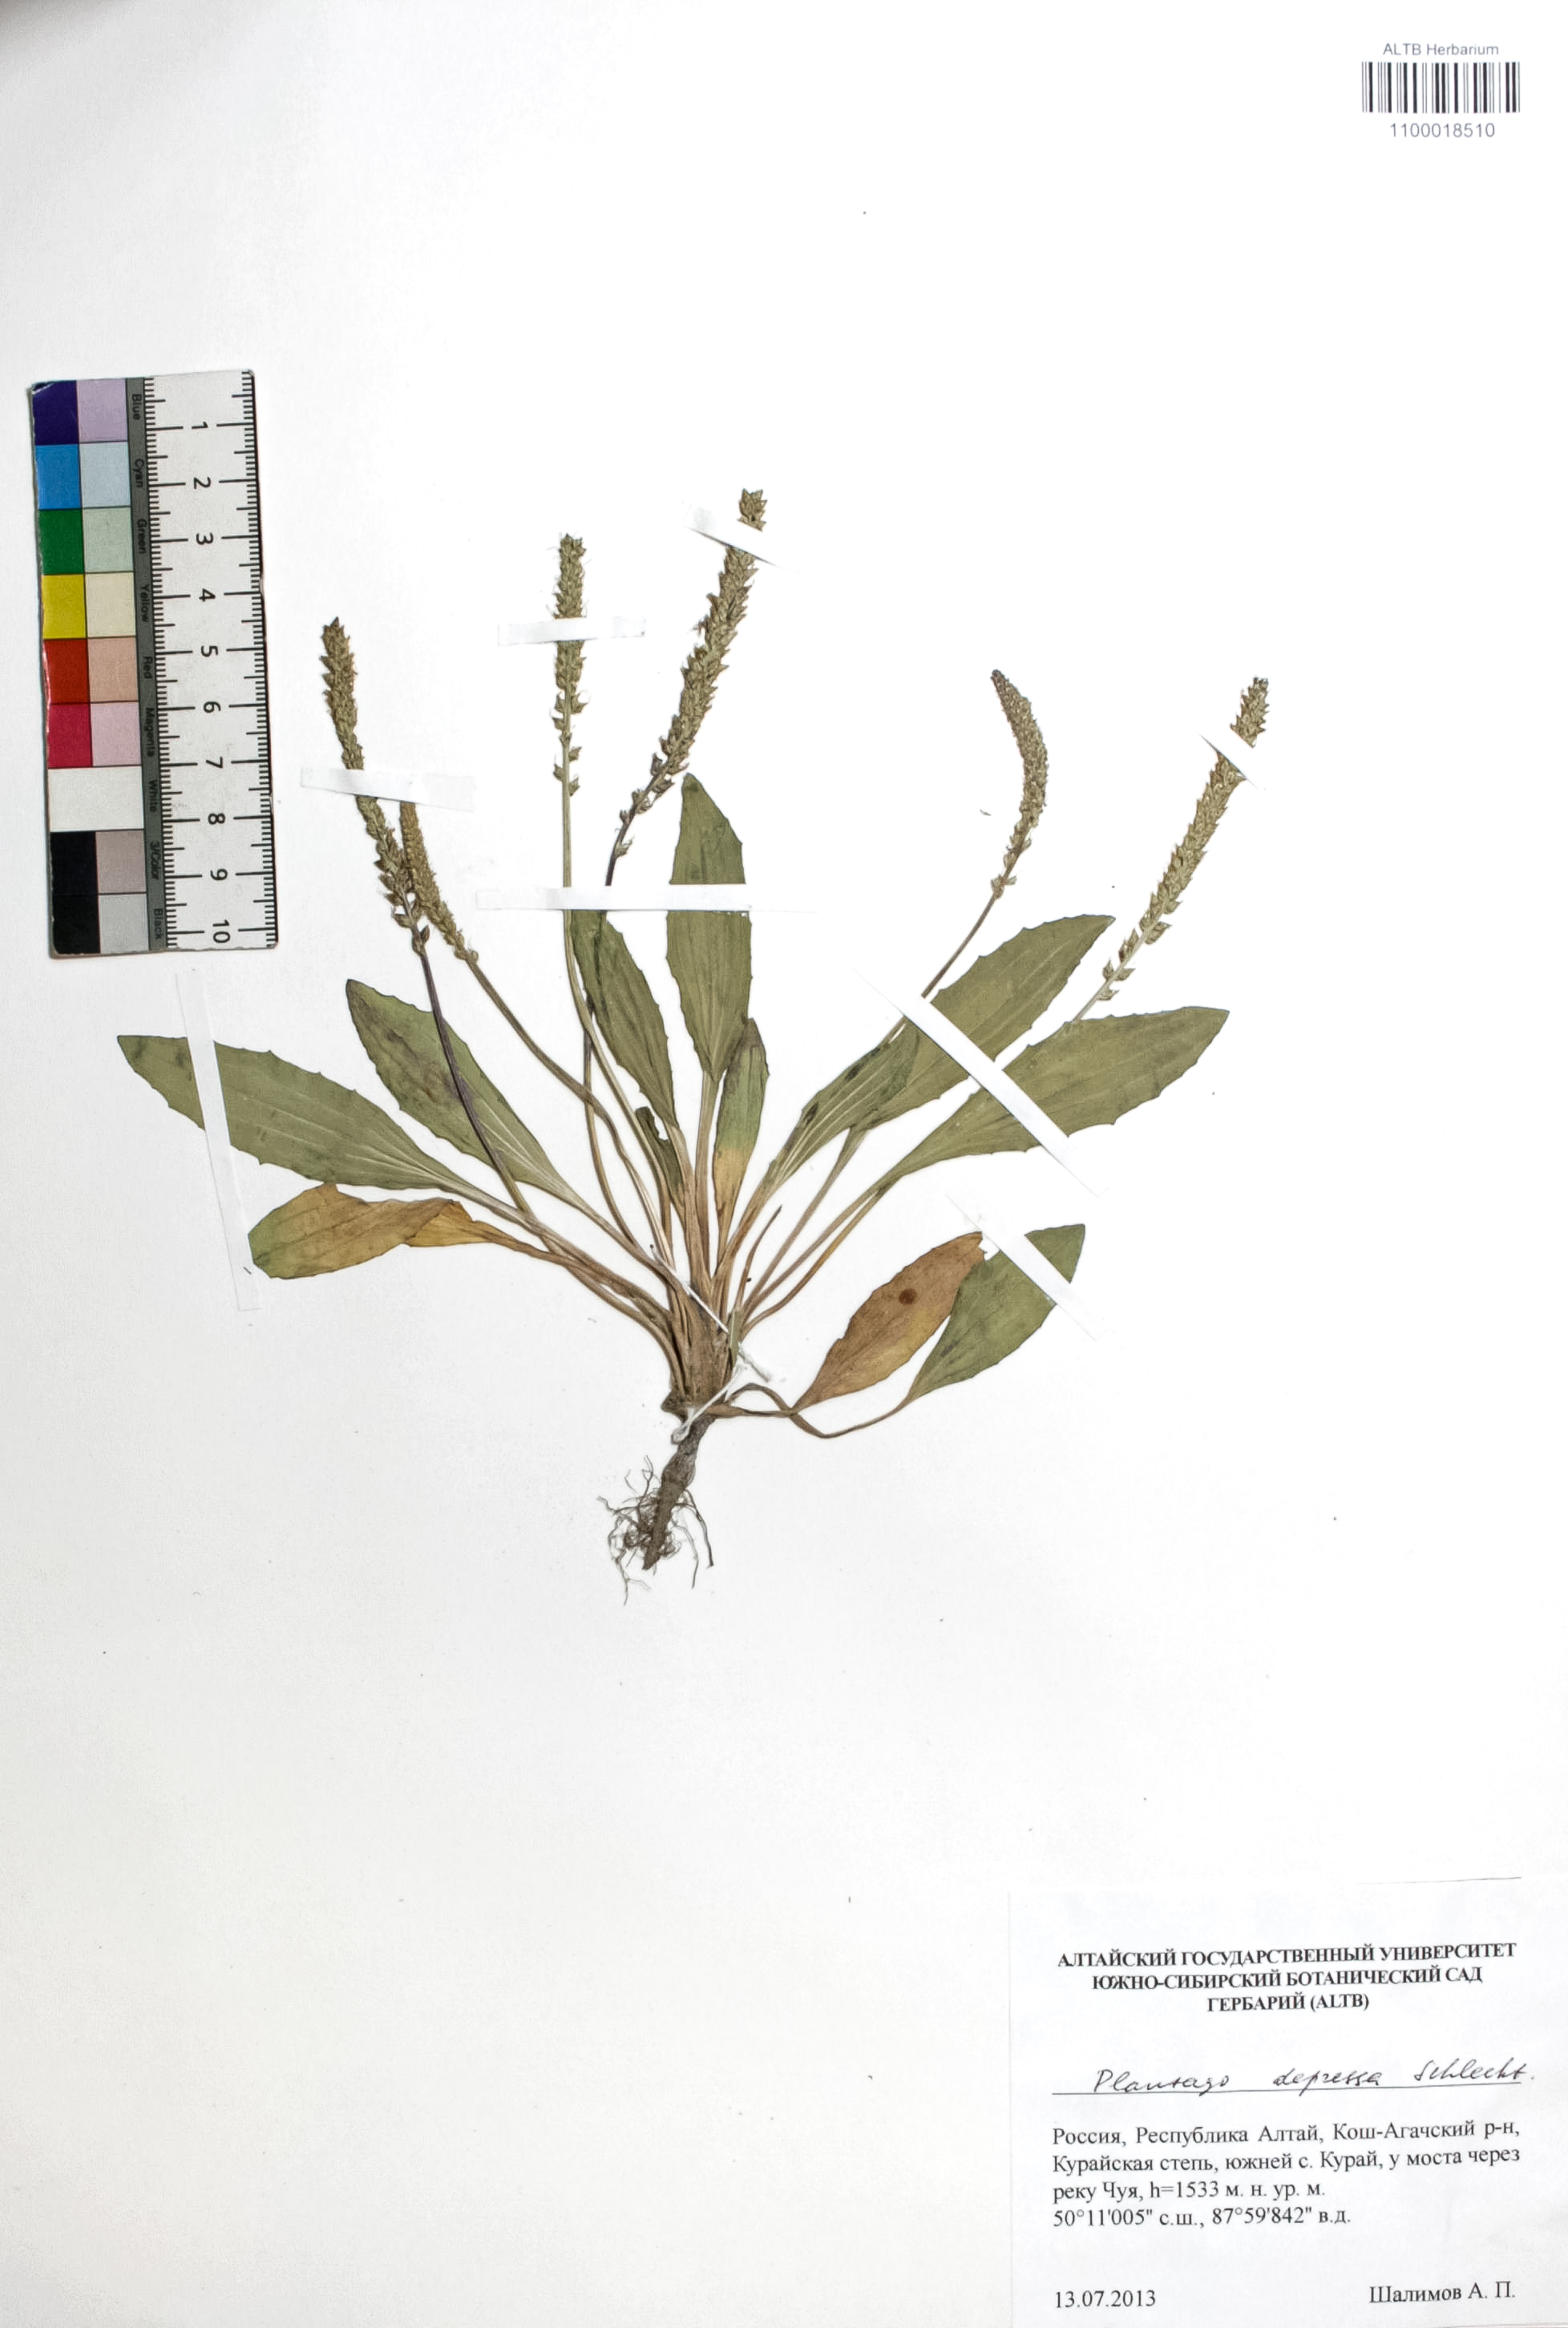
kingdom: Plantae
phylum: Tracheophyta
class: Magnoliopsida
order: Lamiales
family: Plantaginaceae
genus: Plantago
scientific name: Plantago depressa
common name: Depressed plantain
